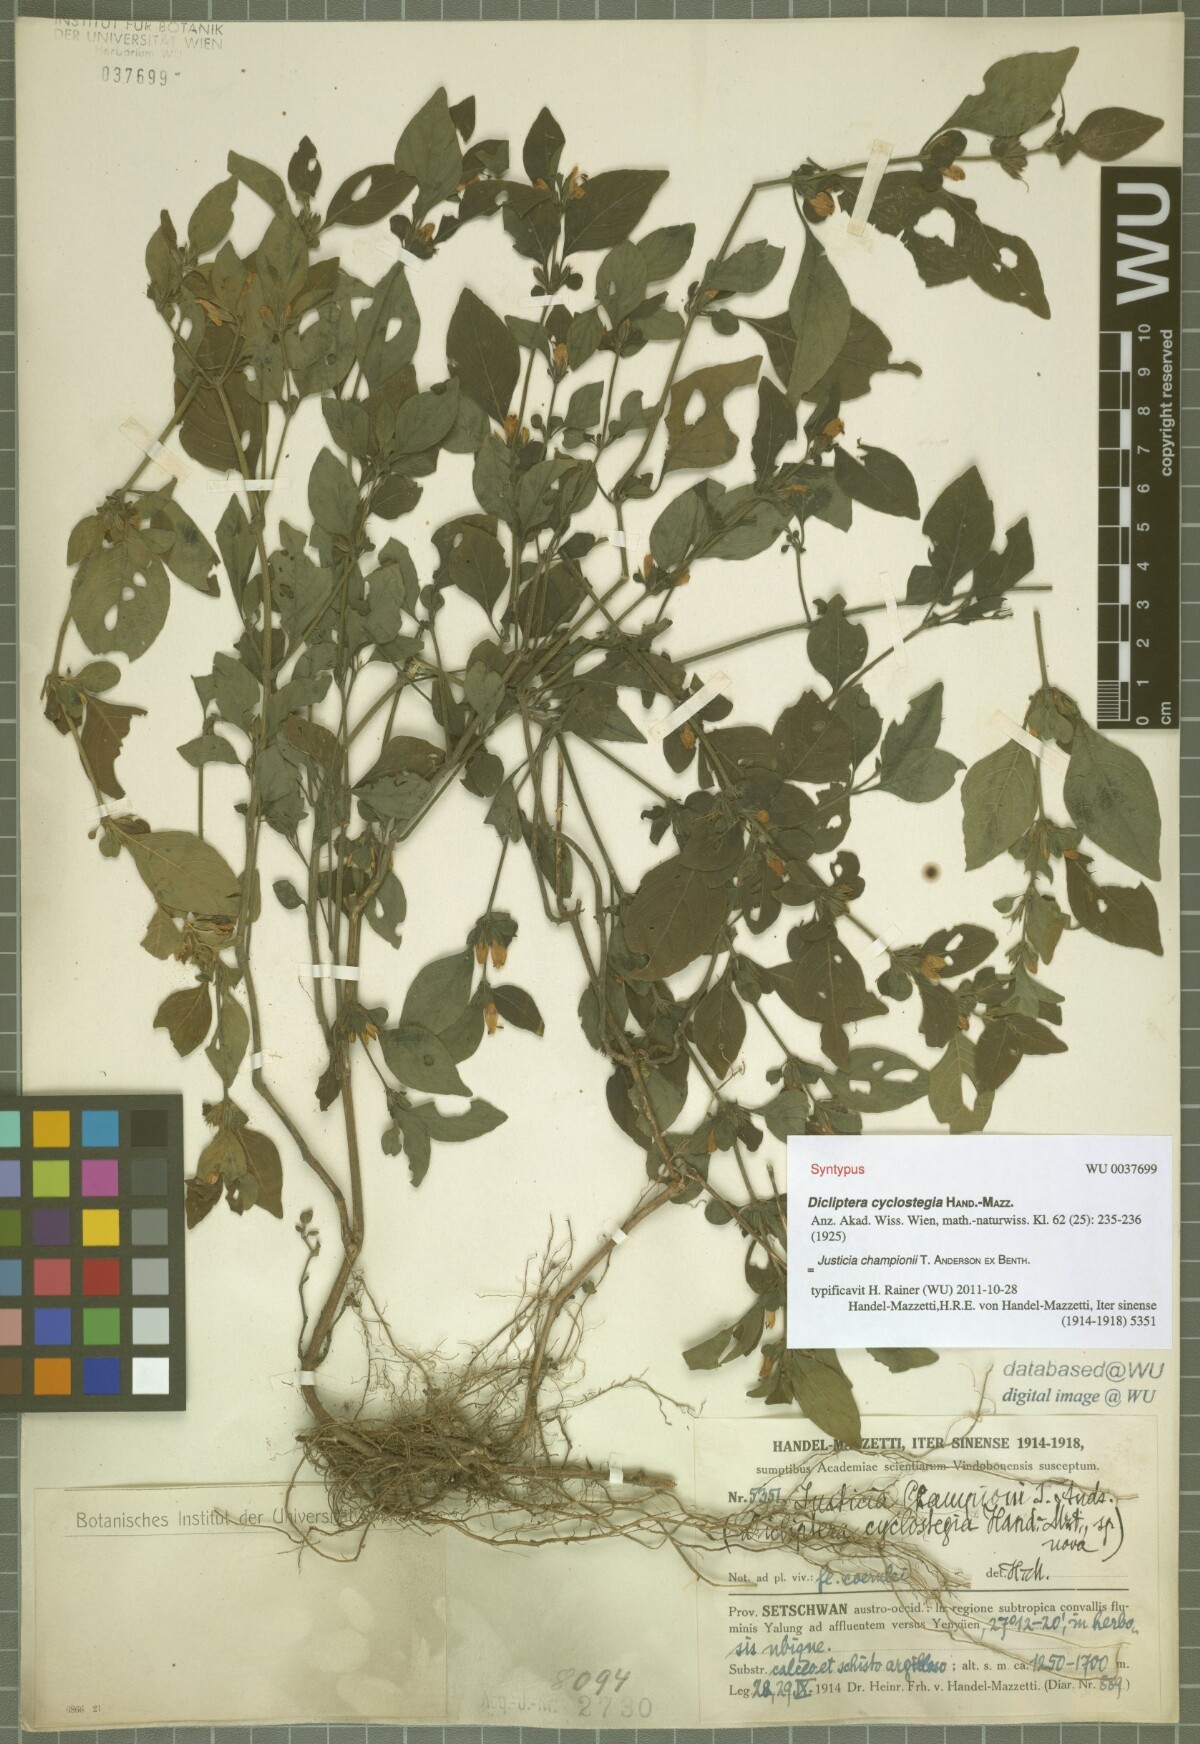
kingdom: Plantae
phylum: Tracheophyta
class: Magnoliopsida
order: Lamiales
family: Acanthaceae
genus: Justicia
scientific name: Justicia cyclostegia
